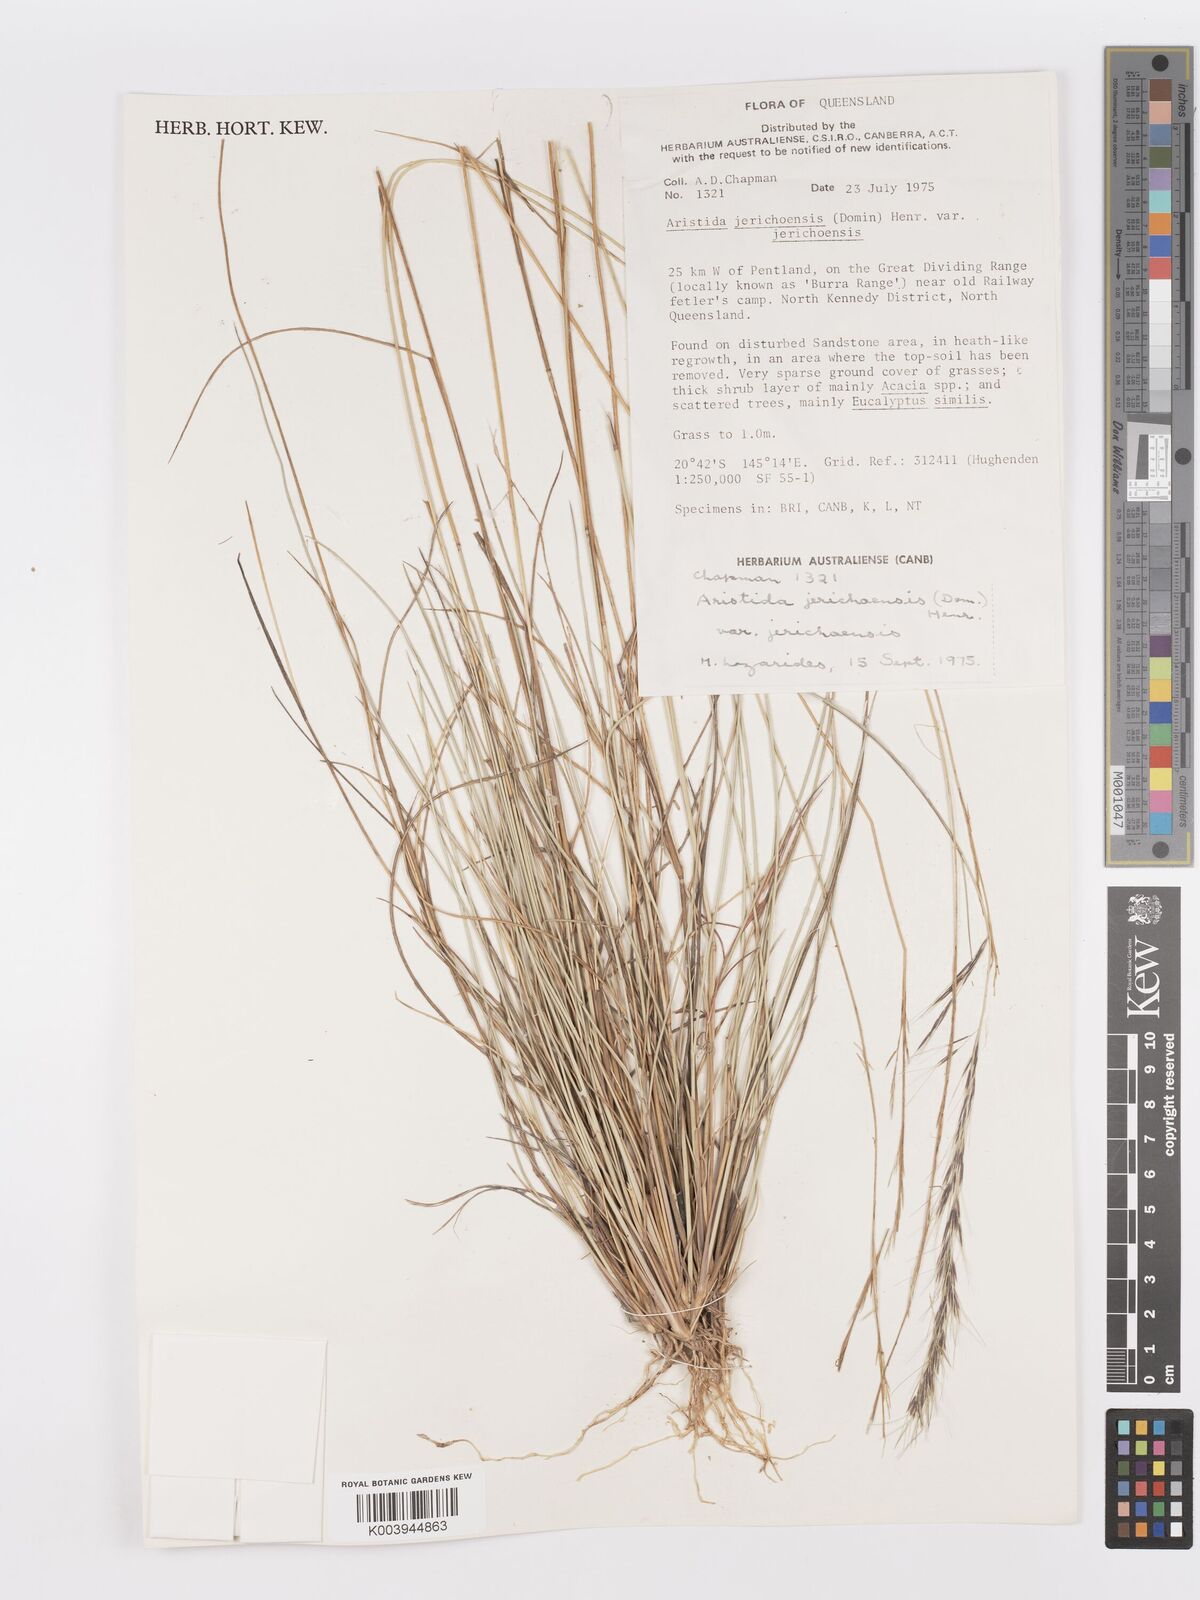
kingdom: Plantae
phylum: Tracheophyta
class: Liliopsida
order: Poales
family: Poaceae
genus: Aristida
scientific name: Aristida jerichoensis
